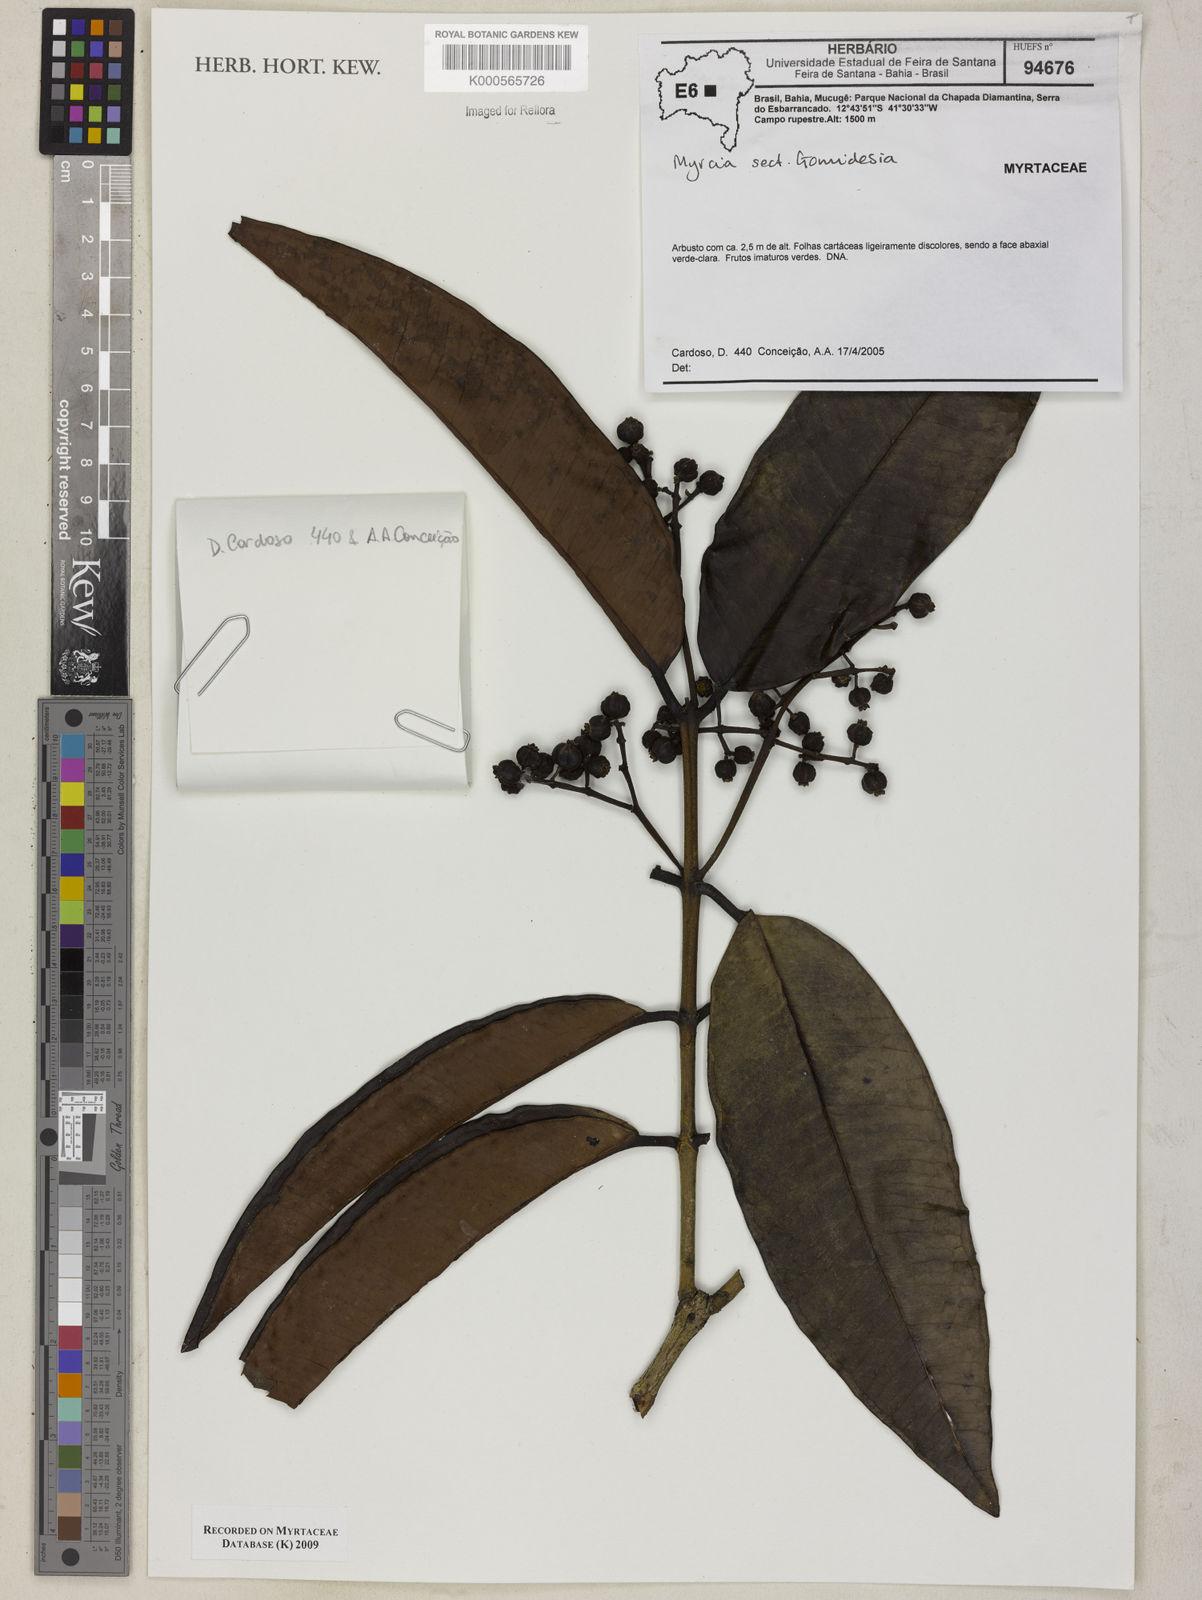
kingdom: Plantae
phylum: Tracheophyta
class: Magnoliopsida
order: Myrtales
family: Myrtaceae
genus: Myrcia
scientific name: Myrcia
